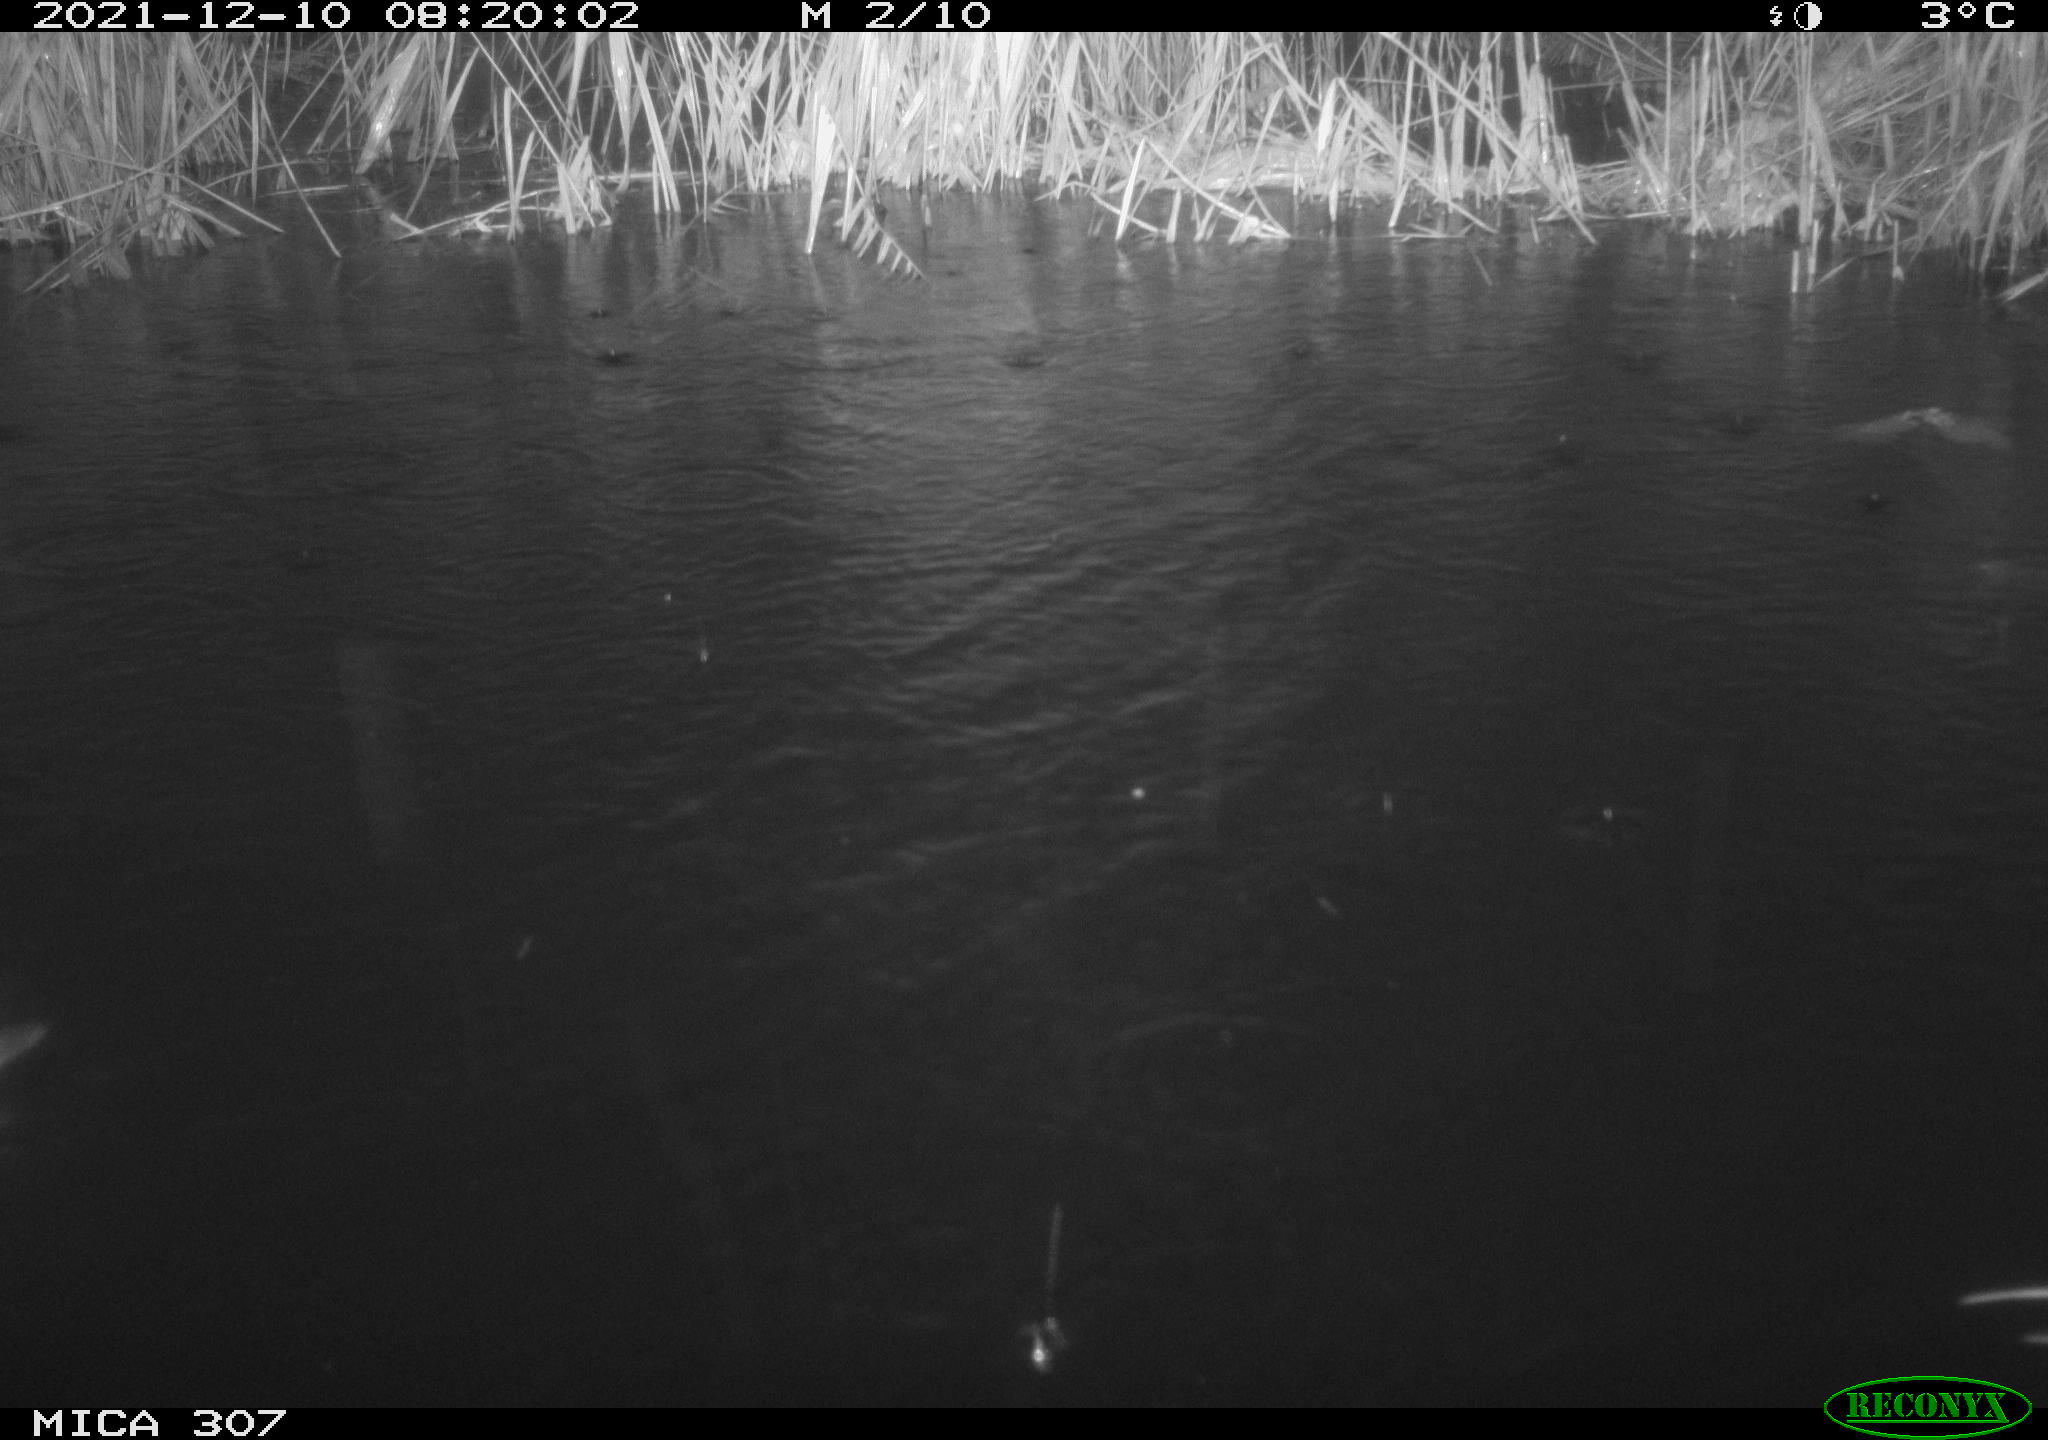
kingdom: Animalia
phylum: Chordata
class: Aves
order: Gruiformes
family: Rallidae
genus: Gallinula
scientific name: Gallinula chloropus
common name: Common moorhen
